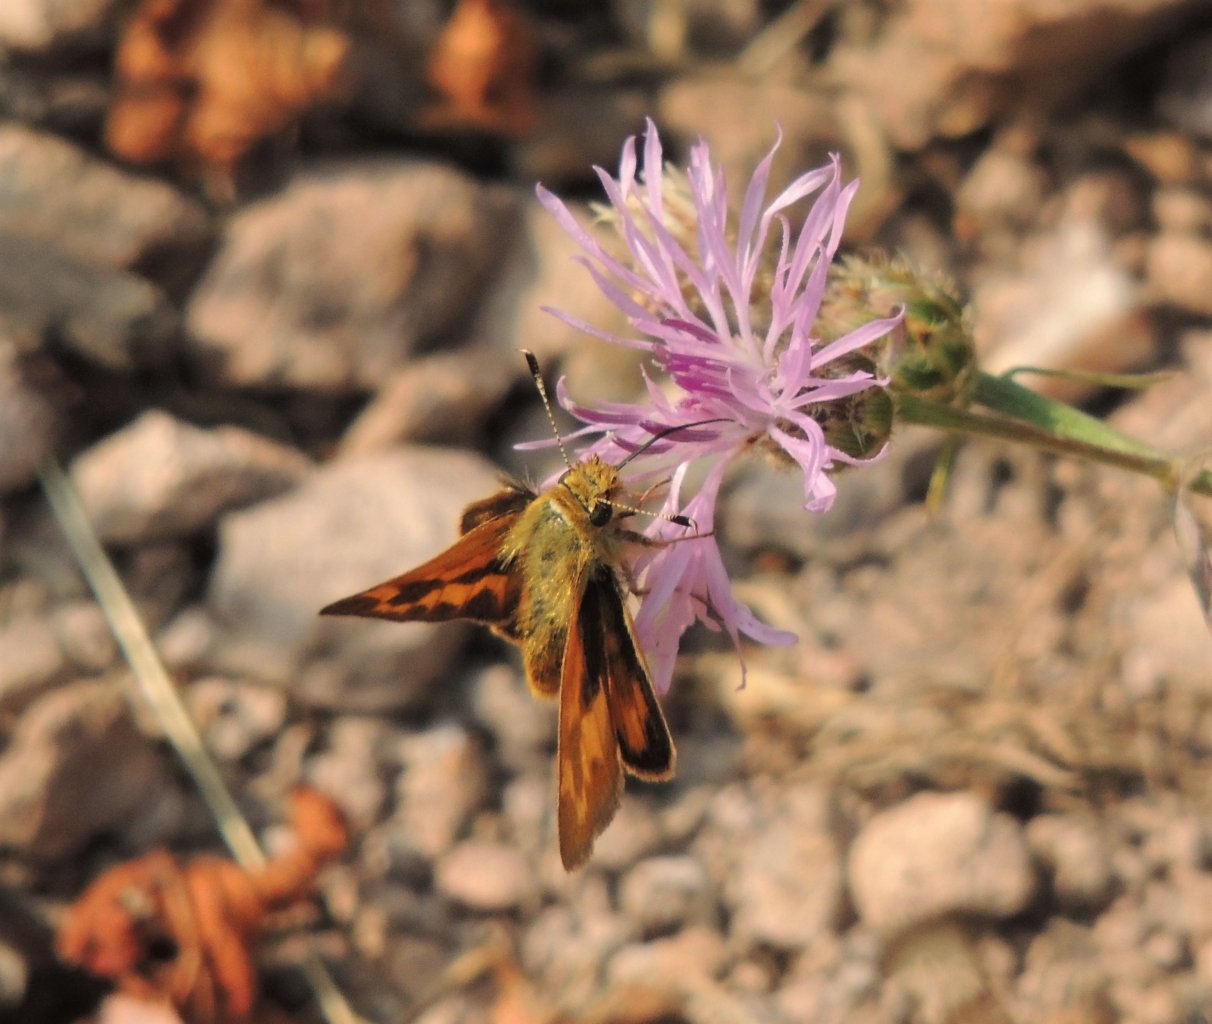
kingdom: Animalia
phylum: Arthropoda
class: Insecta
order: Lepidoptera
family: Hesperiidae
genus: Hesperia
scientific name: Hesperia comma
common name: Western Branded Skipper
